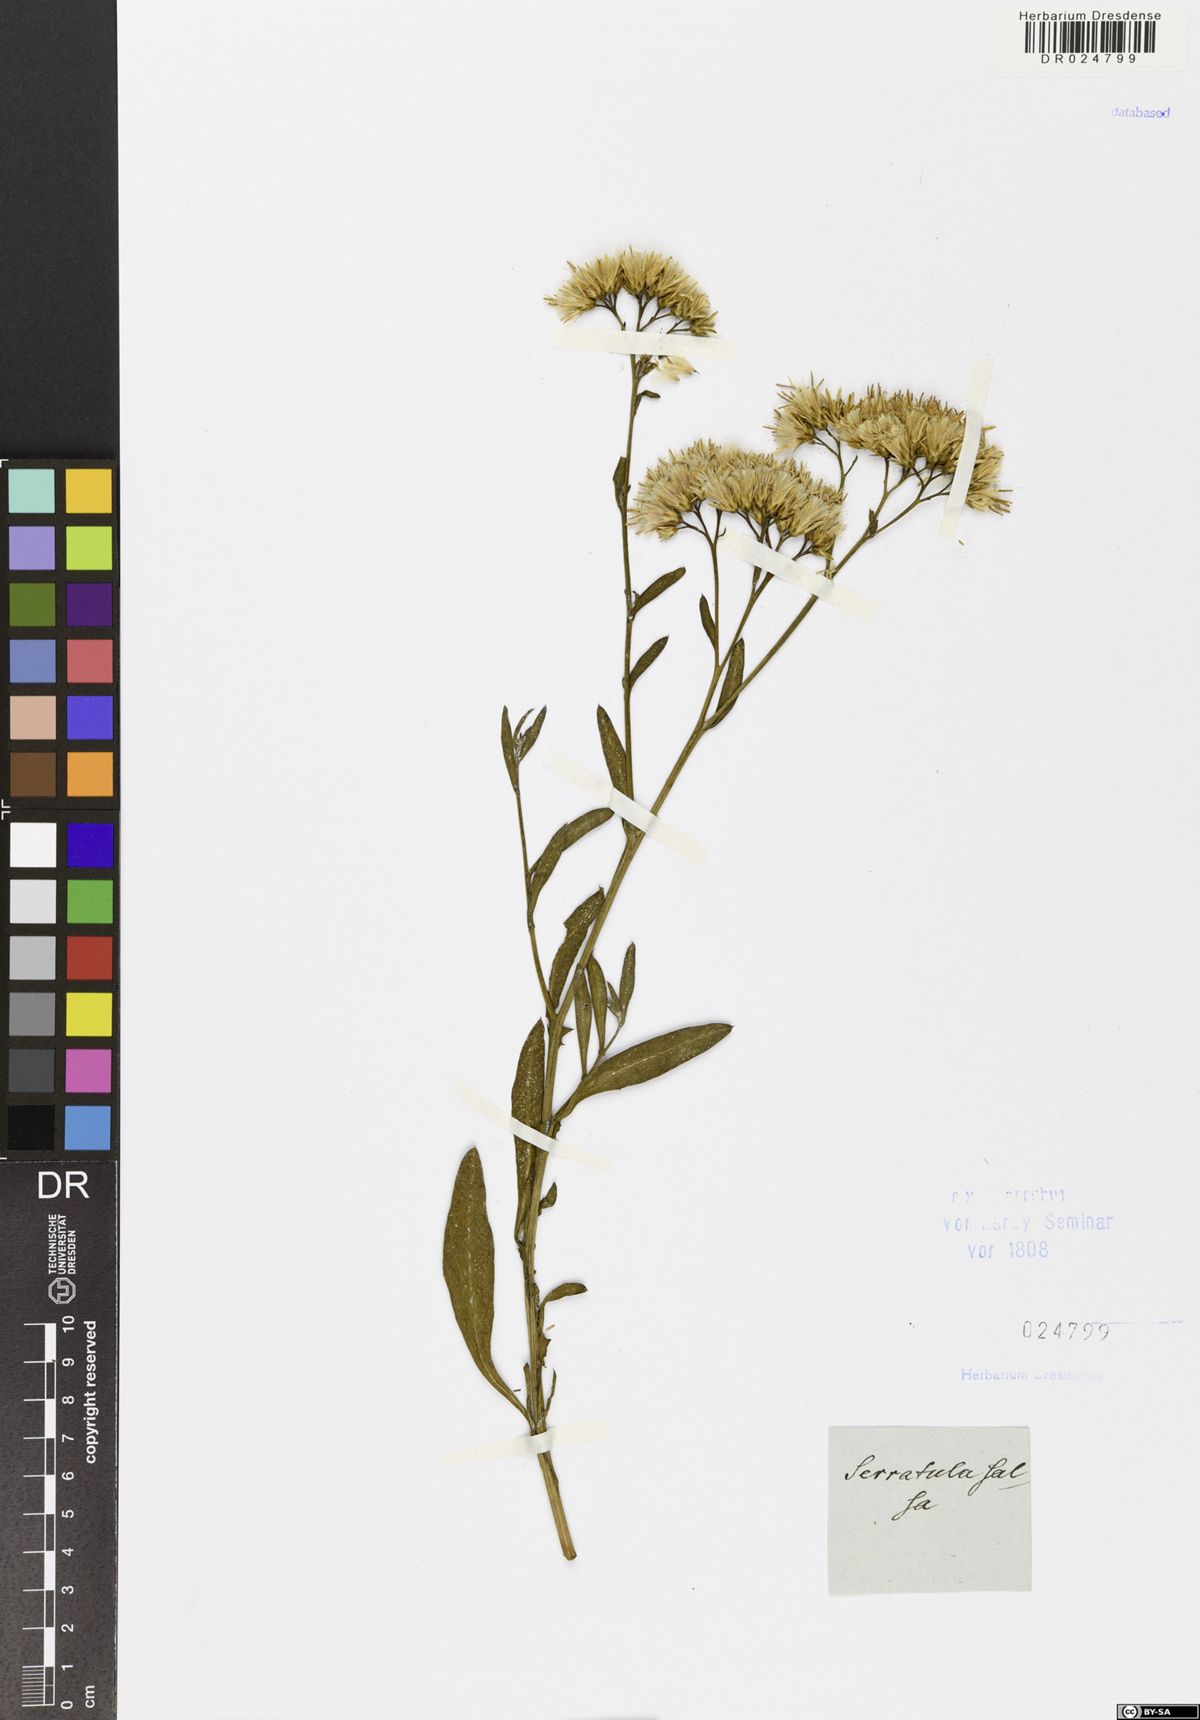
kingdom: Plantae
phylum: Tracheophyta
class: Magnoliopsida
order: Asterales
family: Asteraceae
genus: Saussurea
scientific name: Saussurea salsa
